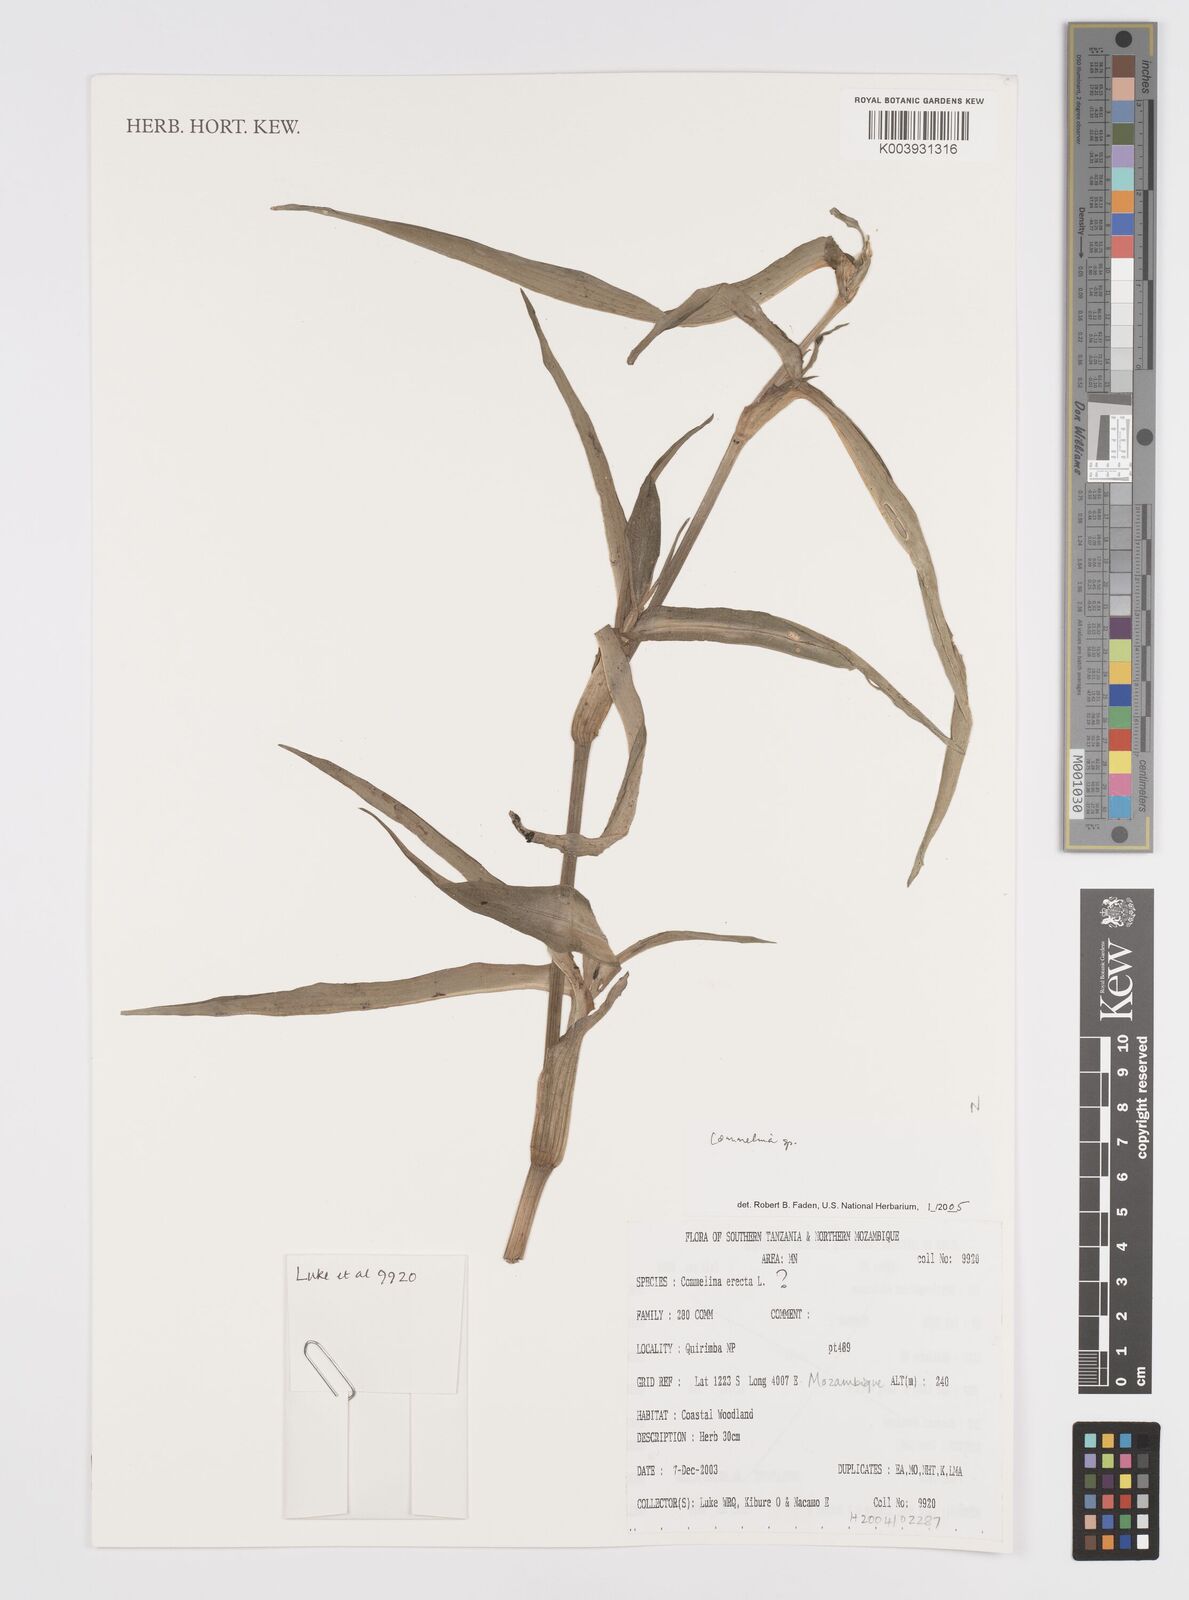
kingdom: Plantae
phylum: Tracheophyta
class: Liliopsida
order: Commelinales
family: Commelinaceae
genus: Commelina
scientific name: Commelina
